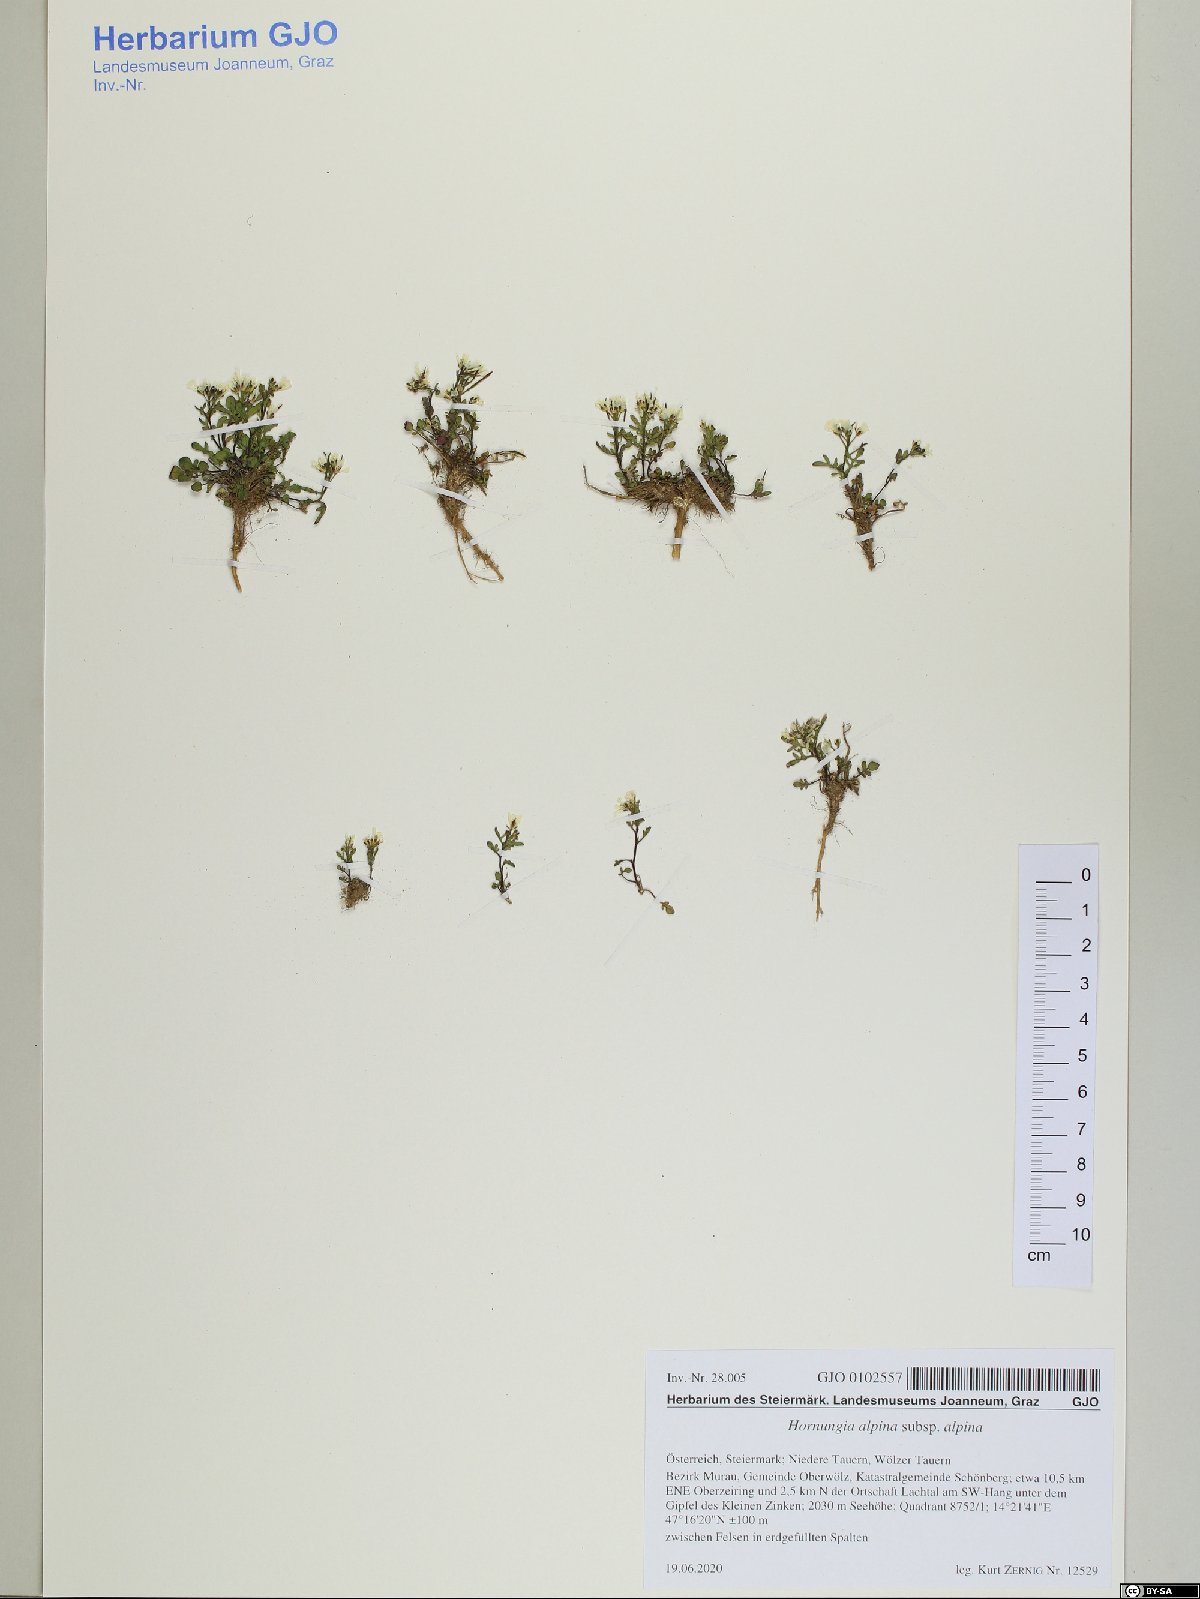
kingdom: Plantae
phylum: Tracheophyta
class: Magnoliopsida
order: Brassicales
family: Brassicaceae
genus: Hornungia
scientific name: Hornungia alpina
